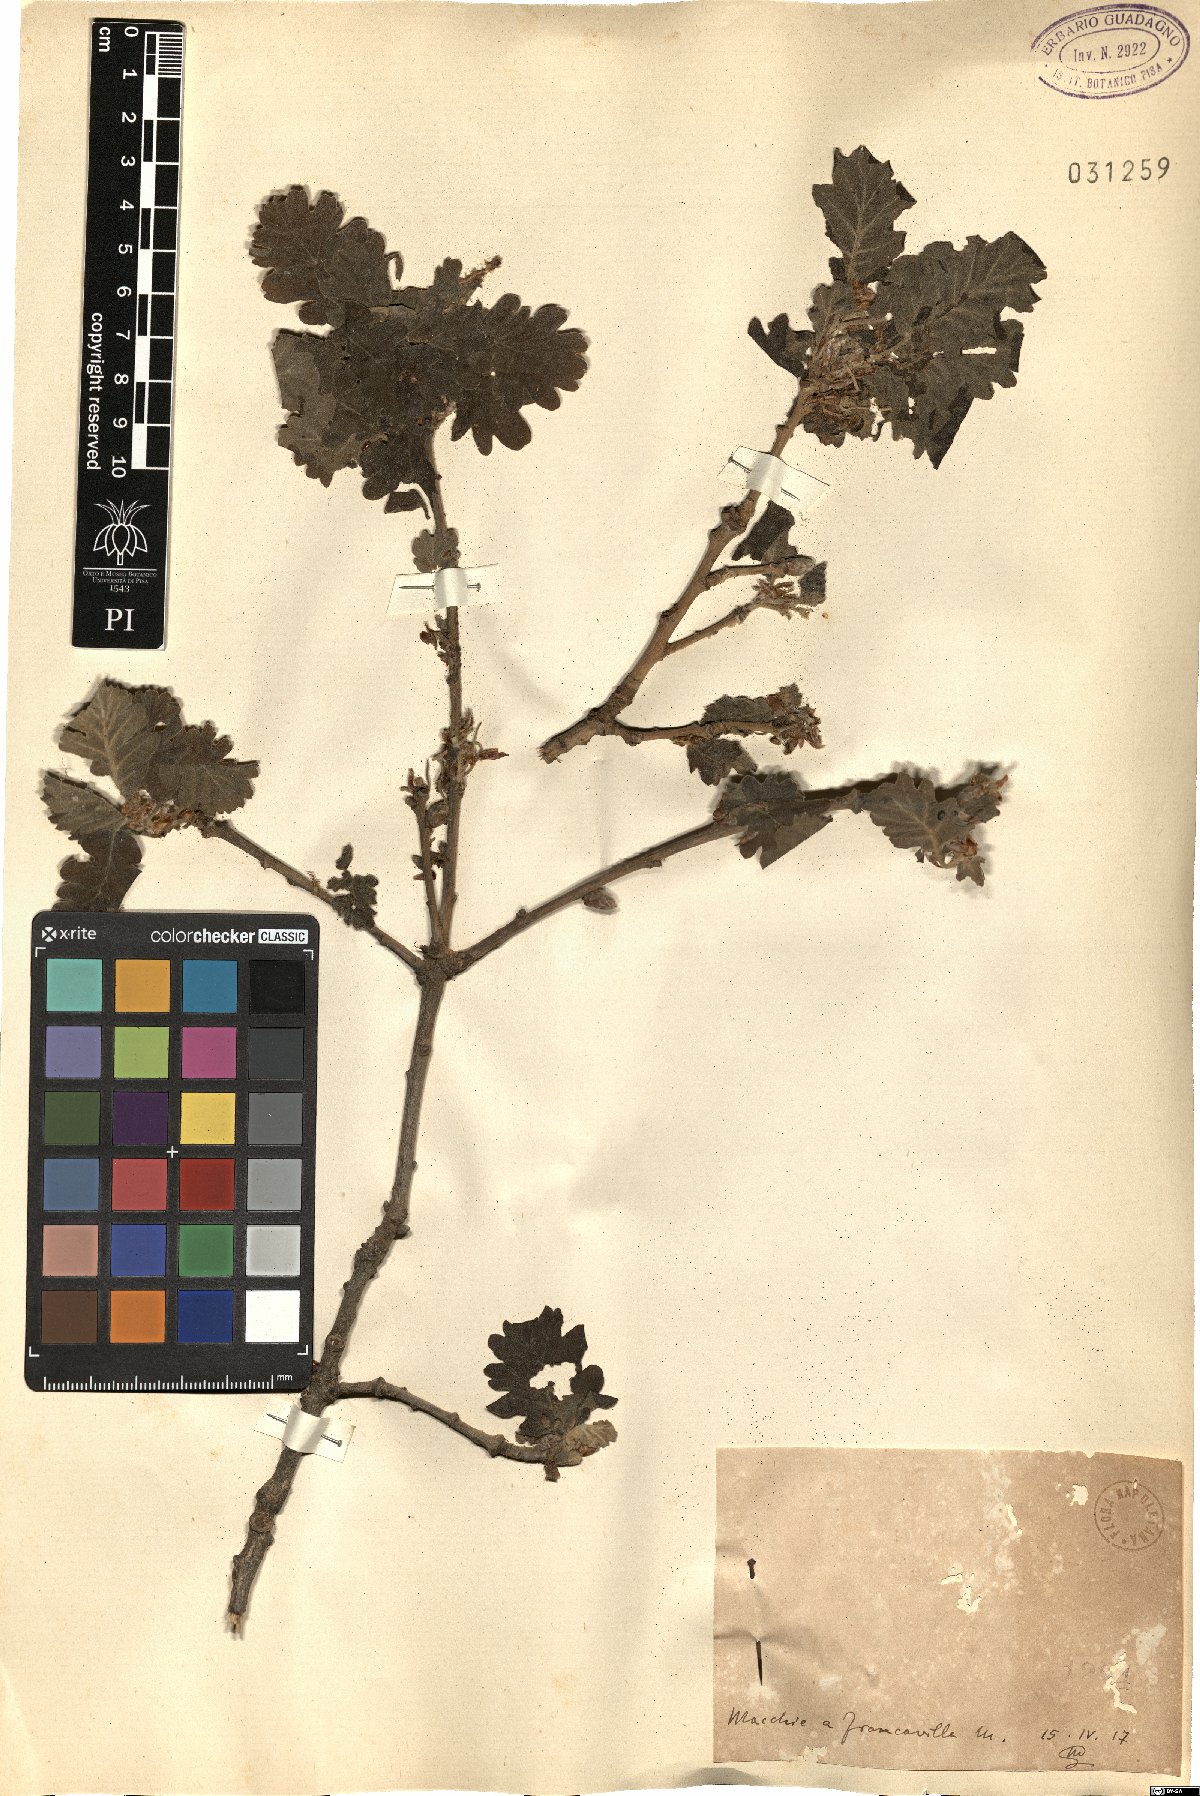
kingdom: Plantae
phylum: Tracheophyta
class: Magnoliopsida
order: Fagales
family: Fagaceae
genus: Quercus
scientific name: Quercus
